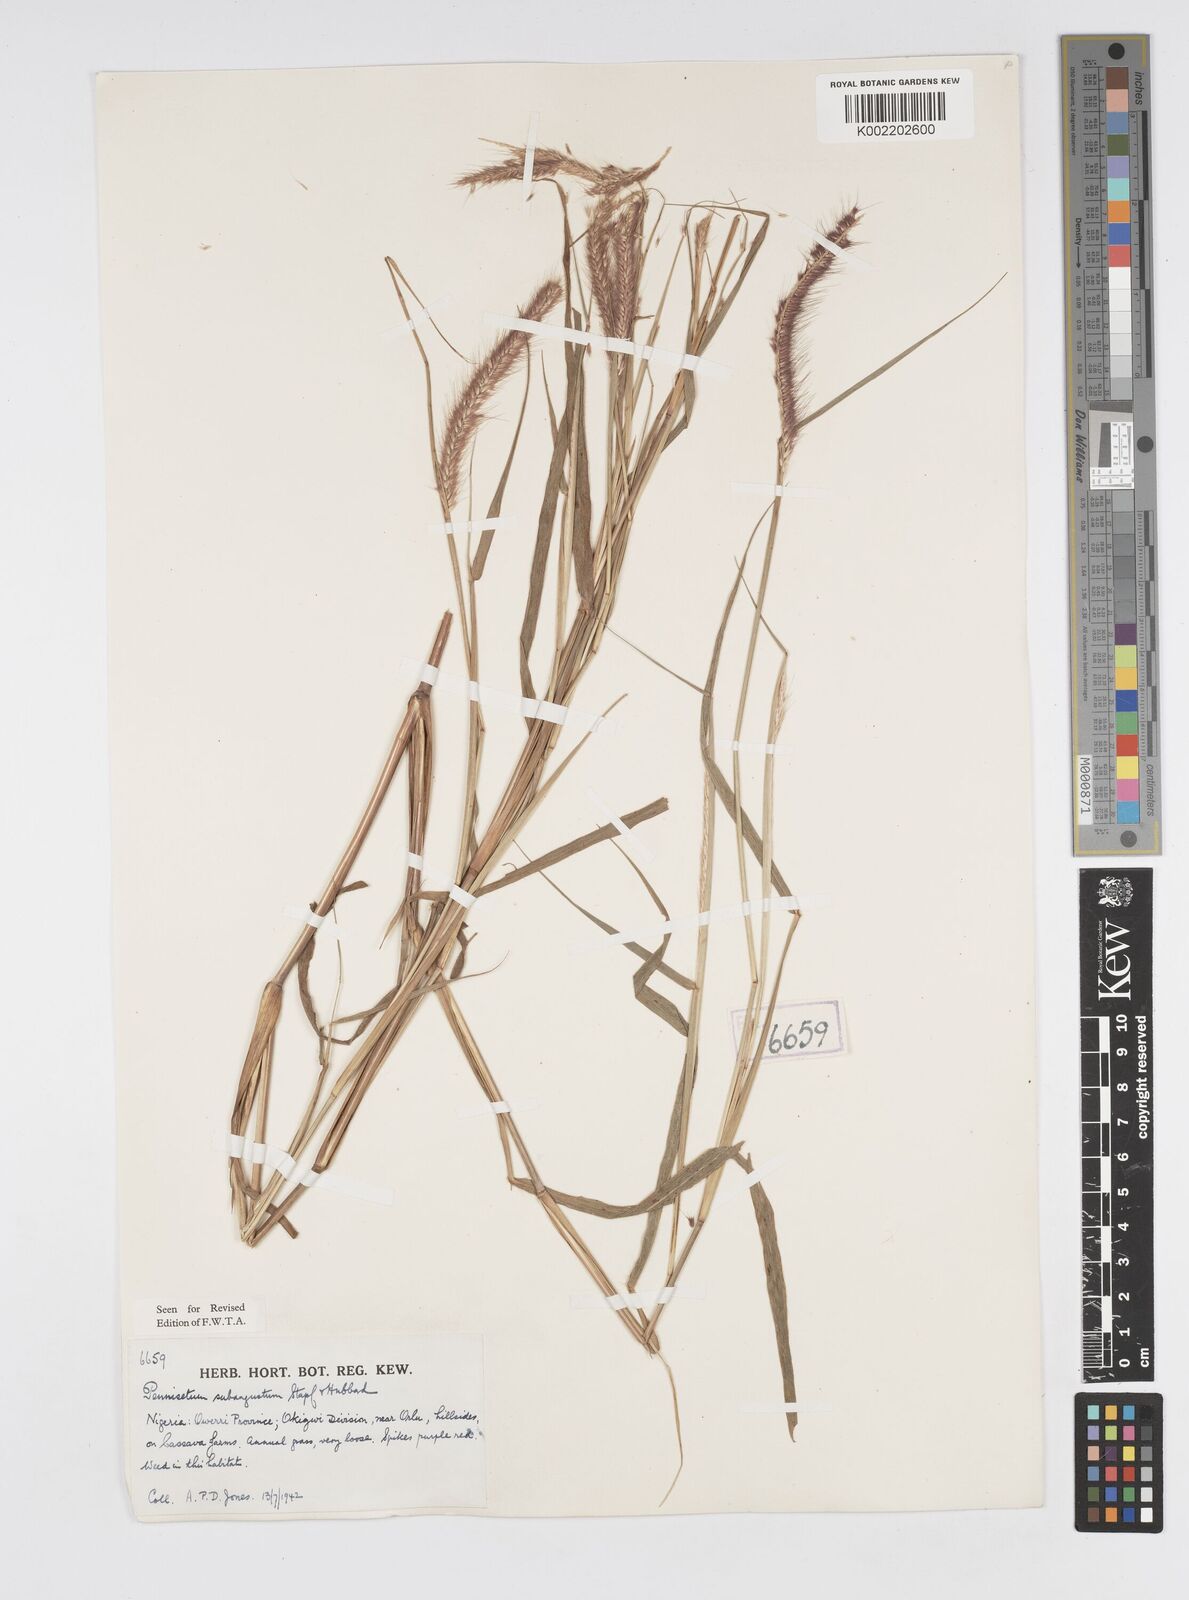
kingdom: Plantae
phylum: Tracheophyta
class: Liliopsida
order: Poales
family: Poaceae
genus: Setaria
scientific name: Setaria parviflora
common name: Knotroot bristle-grass
